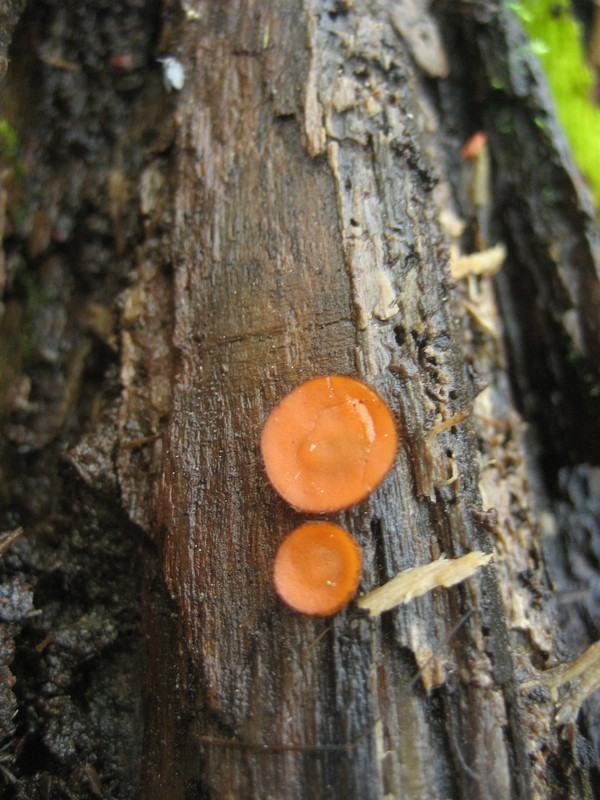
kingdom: Fungi
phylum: Ascomycota
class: Pezizomycetes
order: Pezizales
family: Pyronemataceae
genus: Scutellinia
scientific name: Scutellinia scutellata
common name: frynset skjoldbæger
